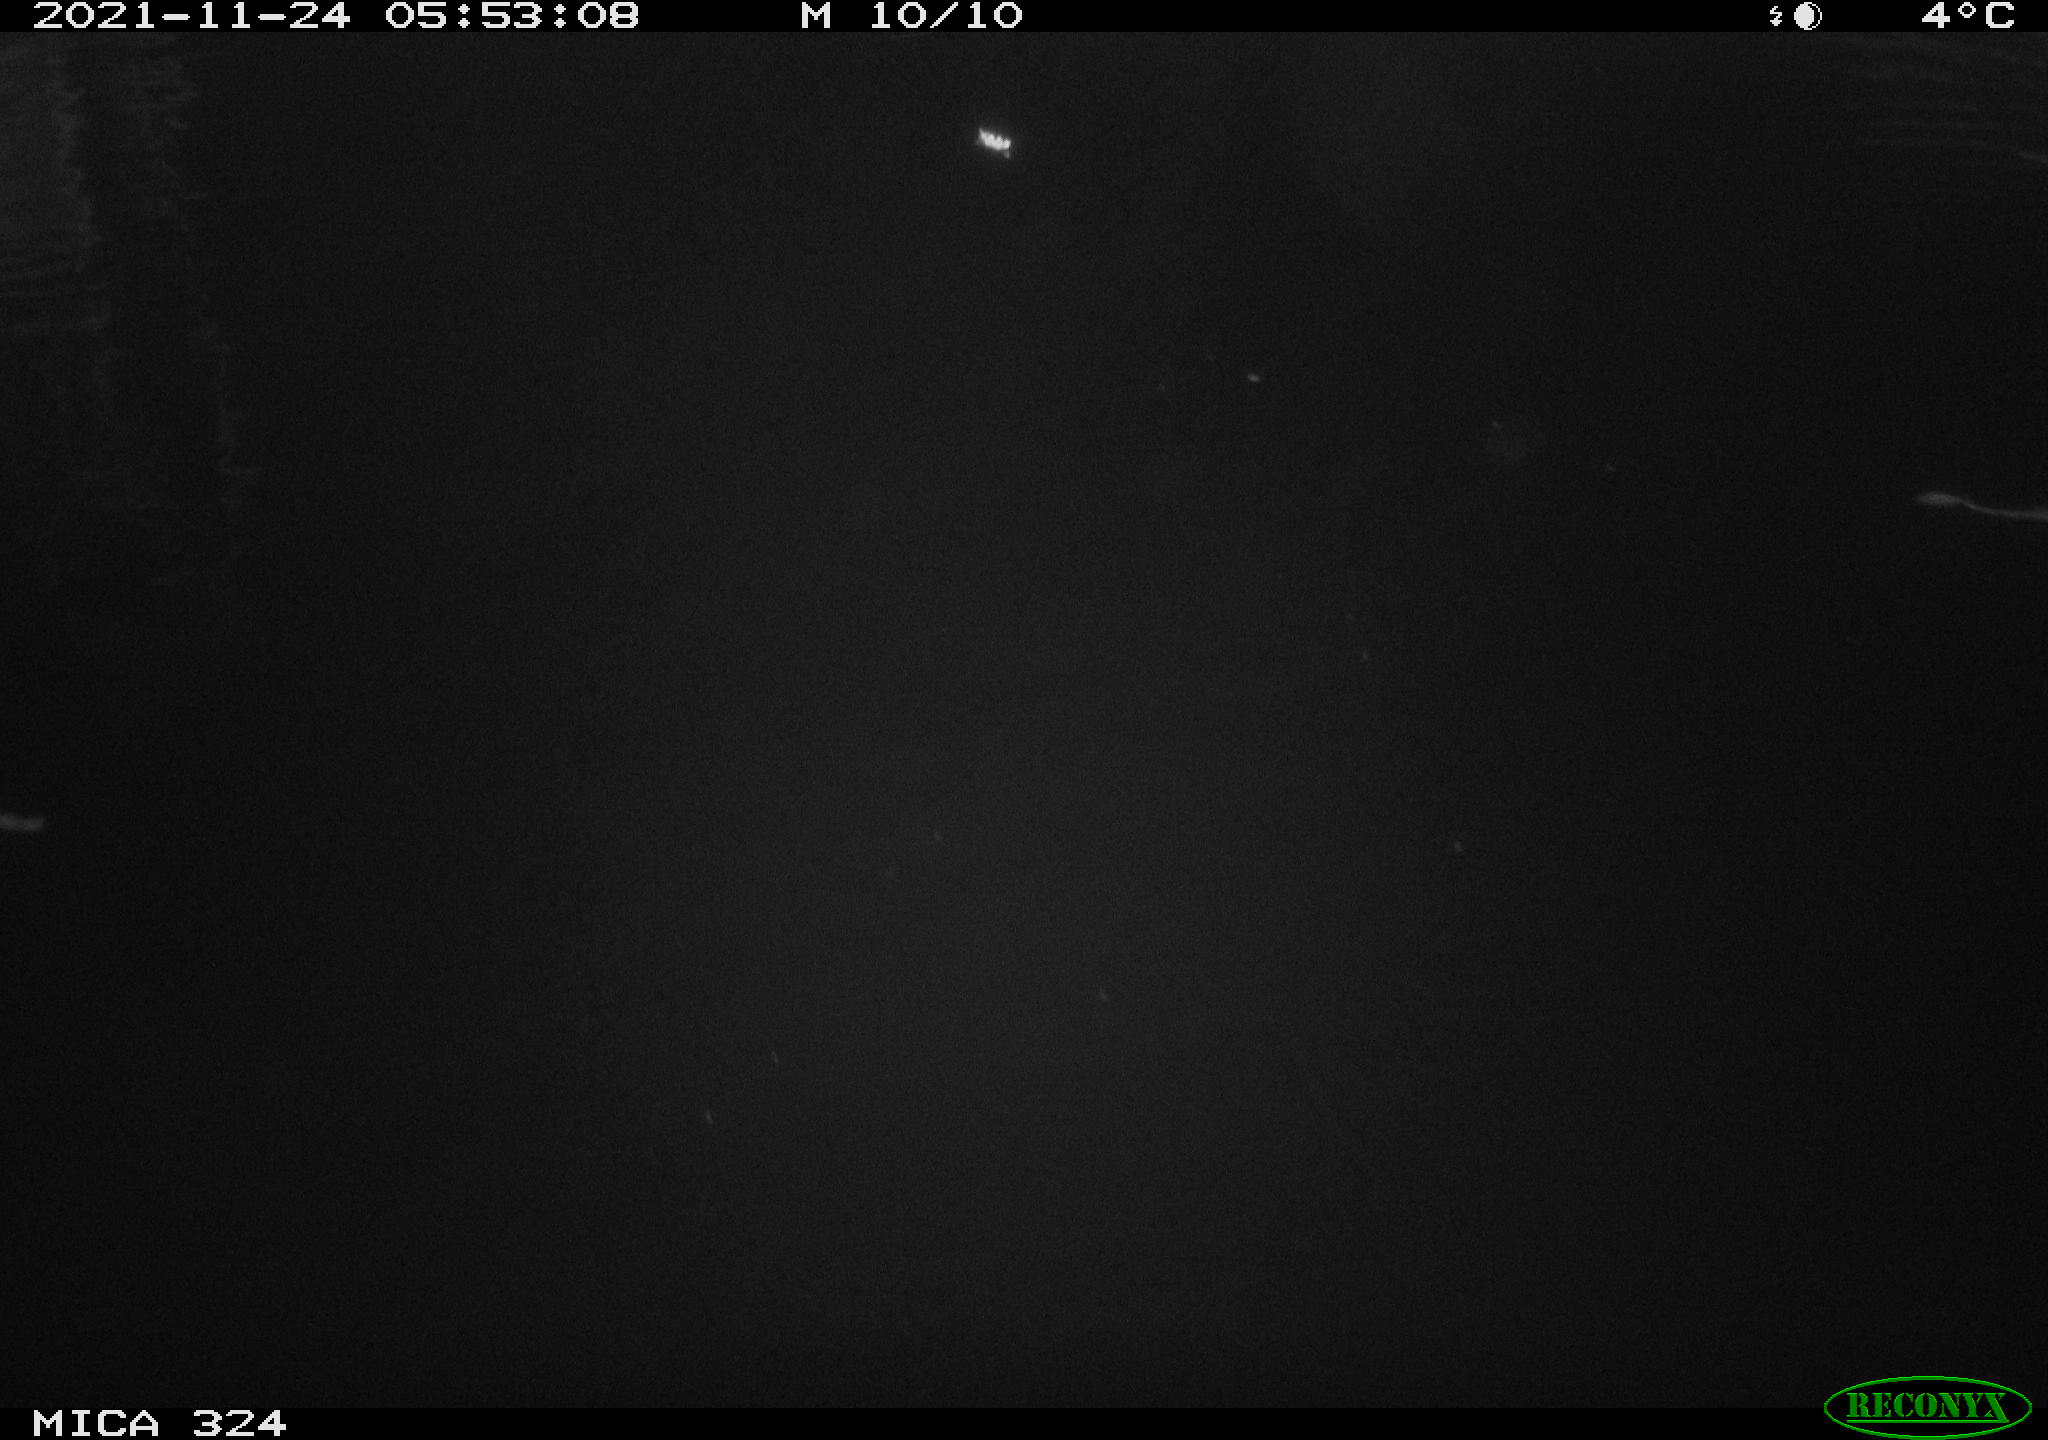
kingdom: Animalia
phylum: Chordata
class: Mammalia
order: Rodentia
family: Cricetidae
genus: Ondatra
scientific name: Ondatra zibethicus
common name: Muskrat
